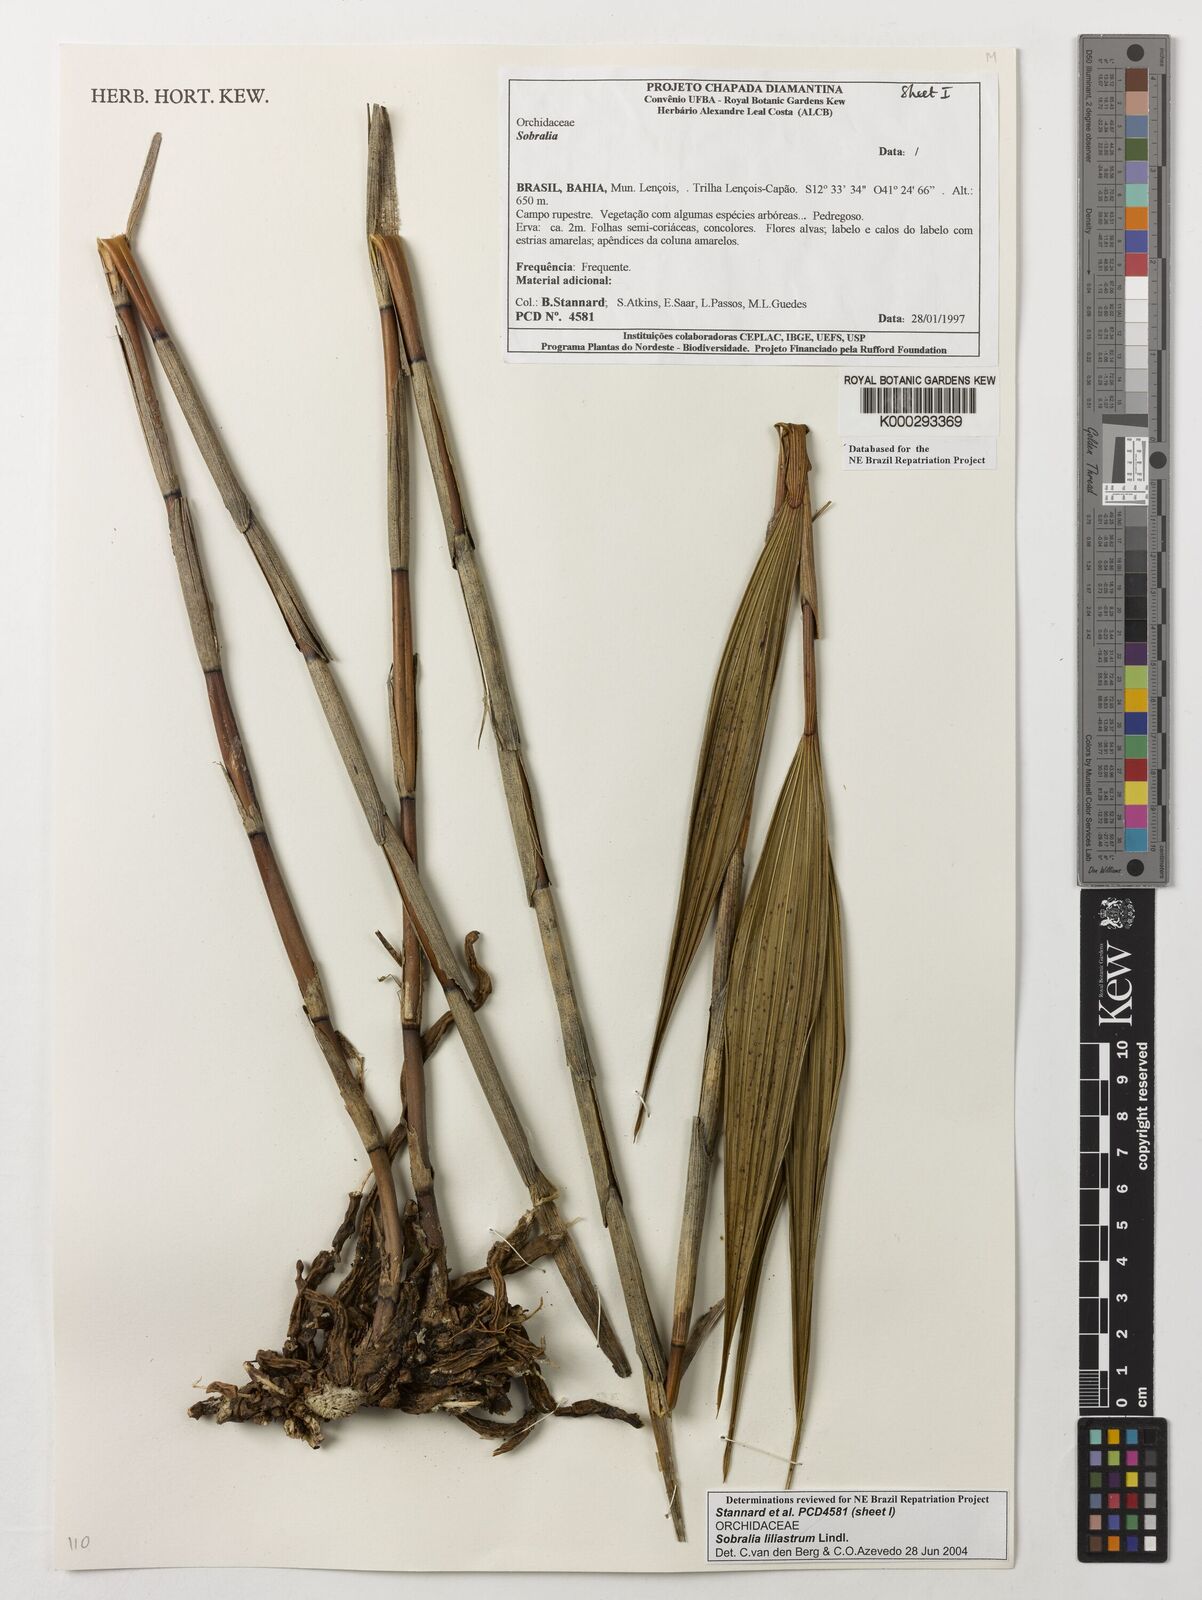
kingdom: Plantae
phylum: Tracheophyta
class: Liliopsida
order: Asparagales
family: Orchidaceae
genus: Sobralia
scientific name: Sobralia liliastrum
